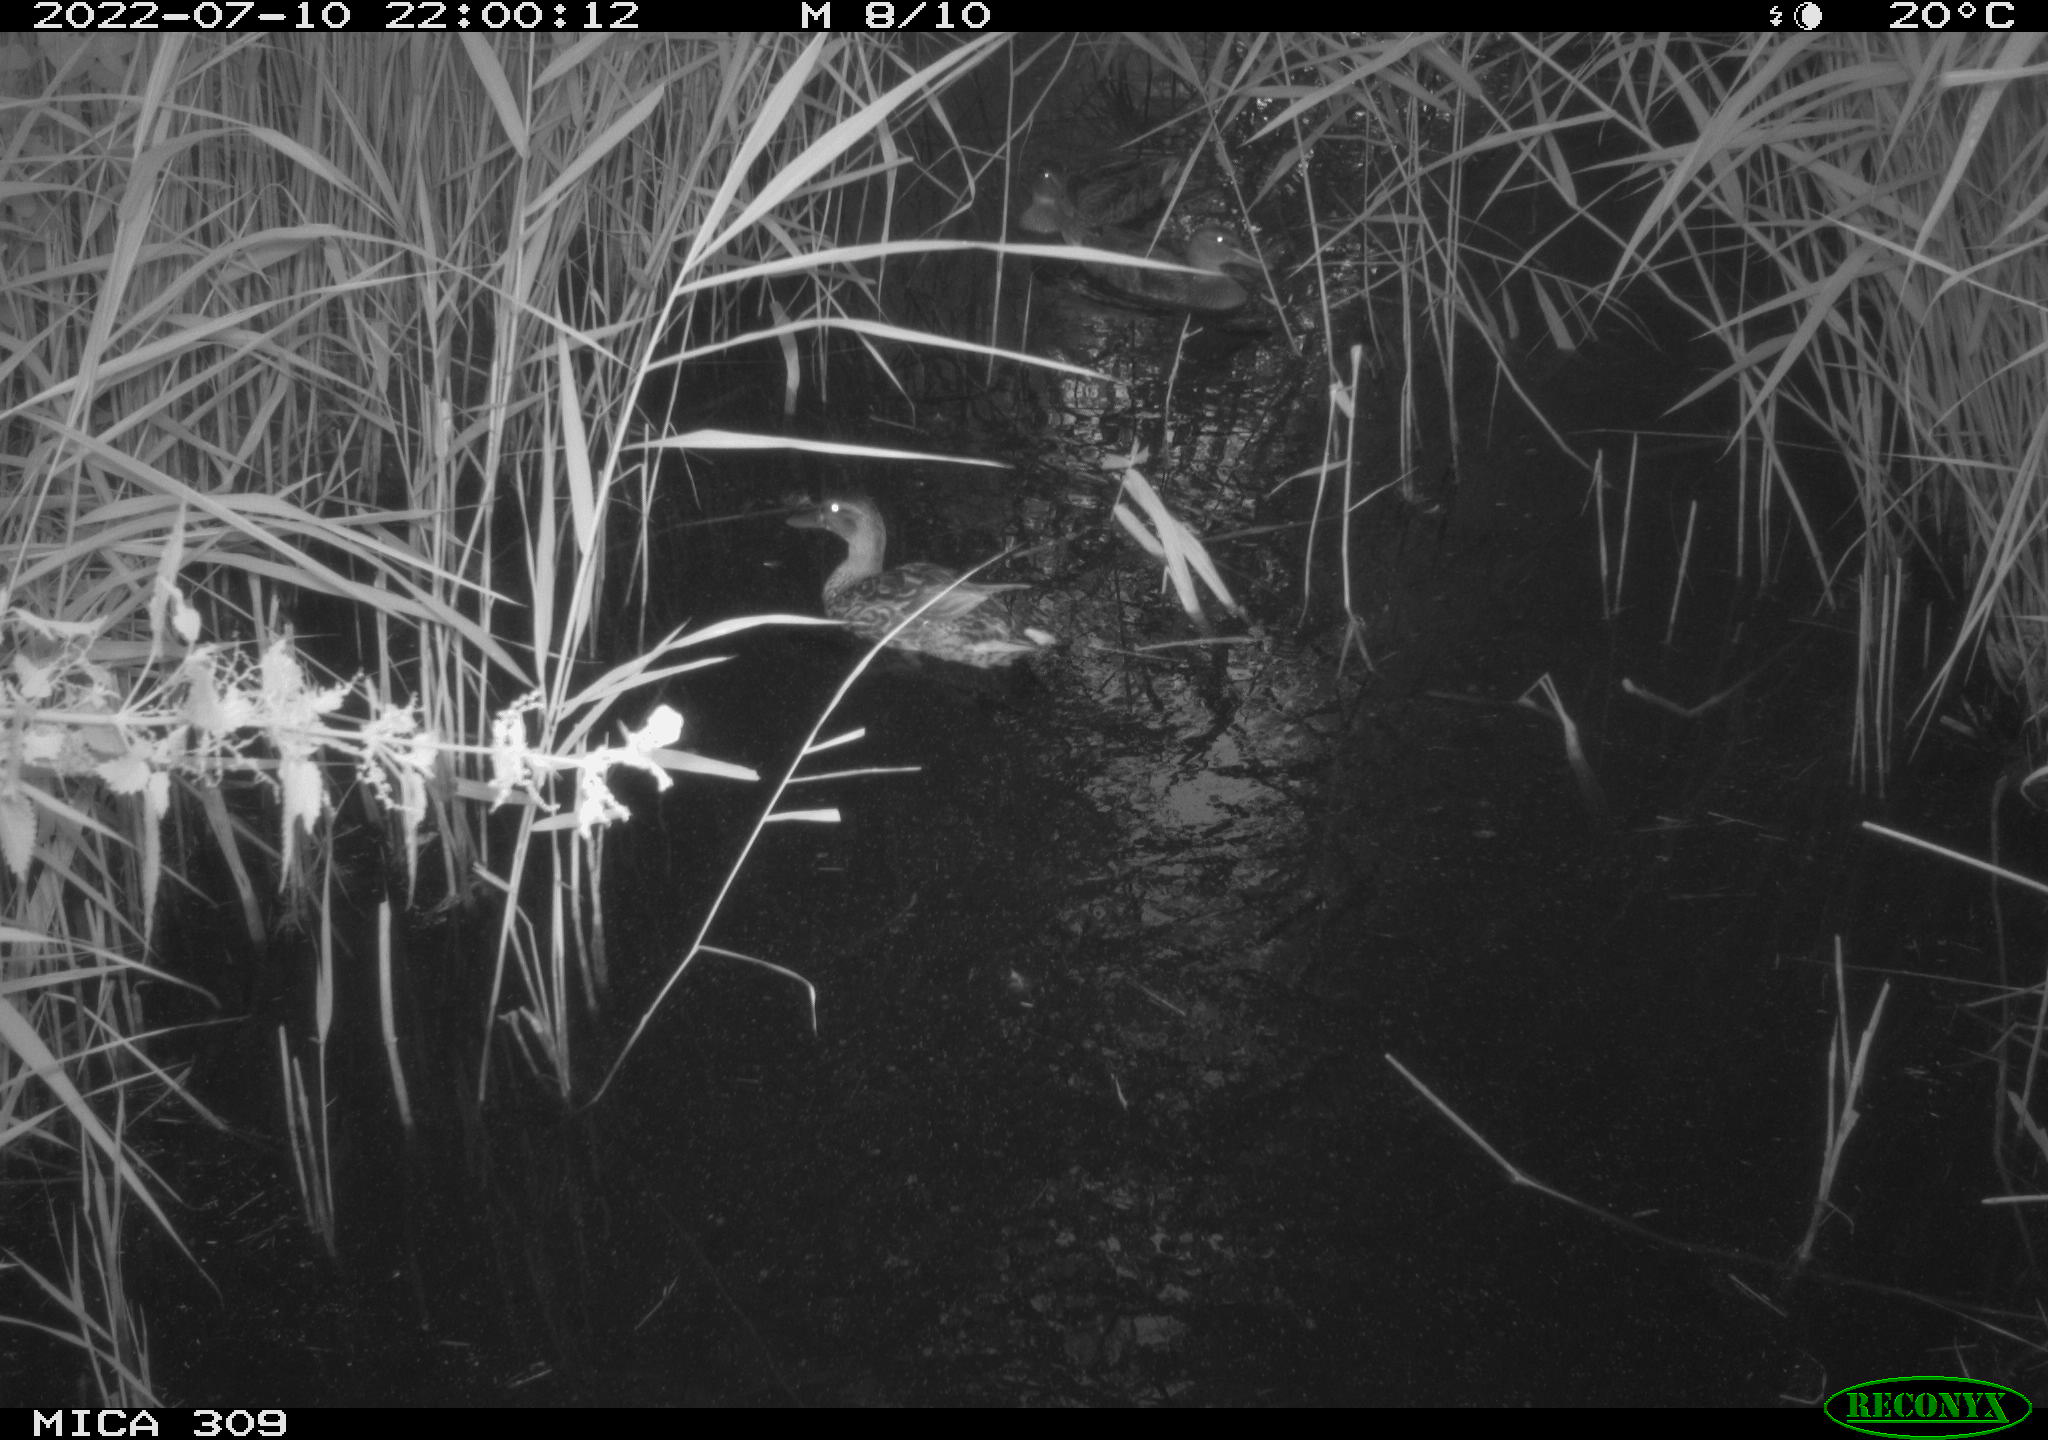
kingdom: Animalia
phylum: Chordata
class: Aves
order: Anseriformes
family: Anatidae
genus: Anas
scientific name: Anas platyrhynchos
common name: Mallard
